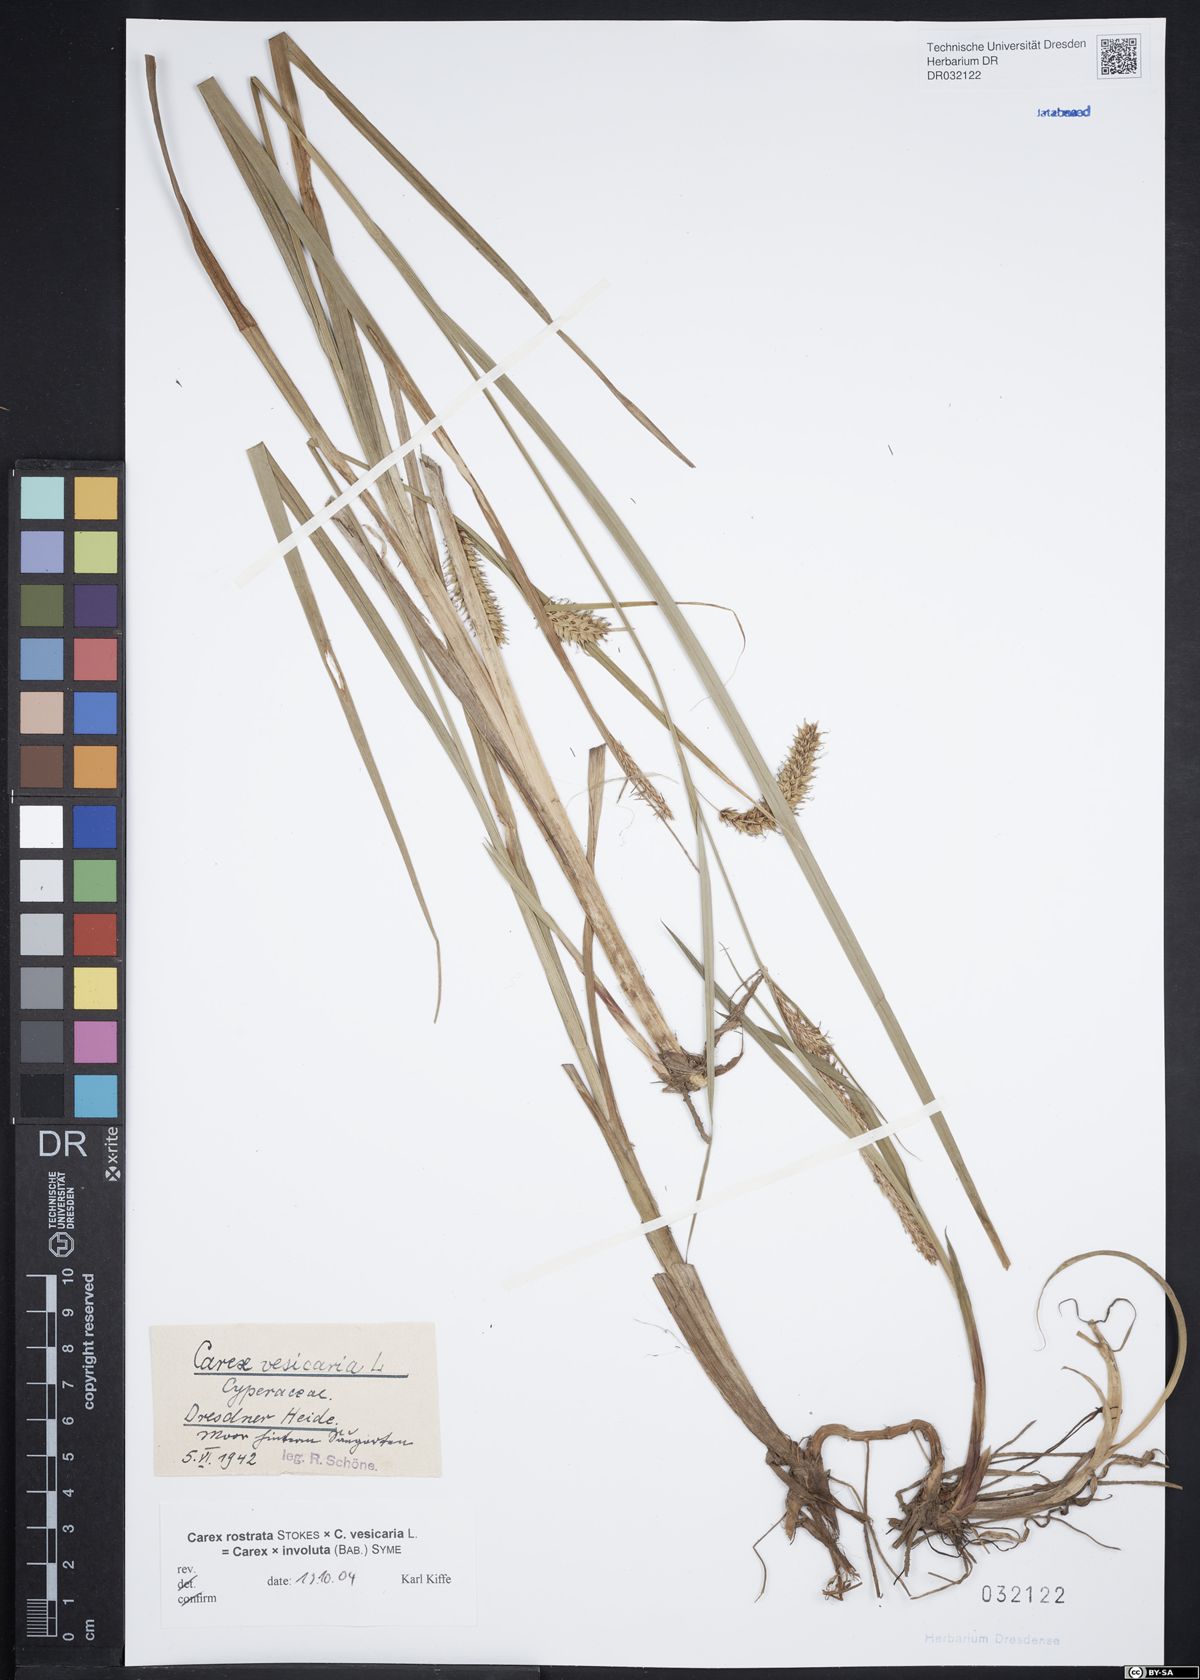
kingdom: Plantae
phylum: Tracheophyta
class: Liliopsida
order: Poales
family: Cyperaceae
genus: Carex
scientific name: Carex vesicaria
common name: Bladder-sedge
